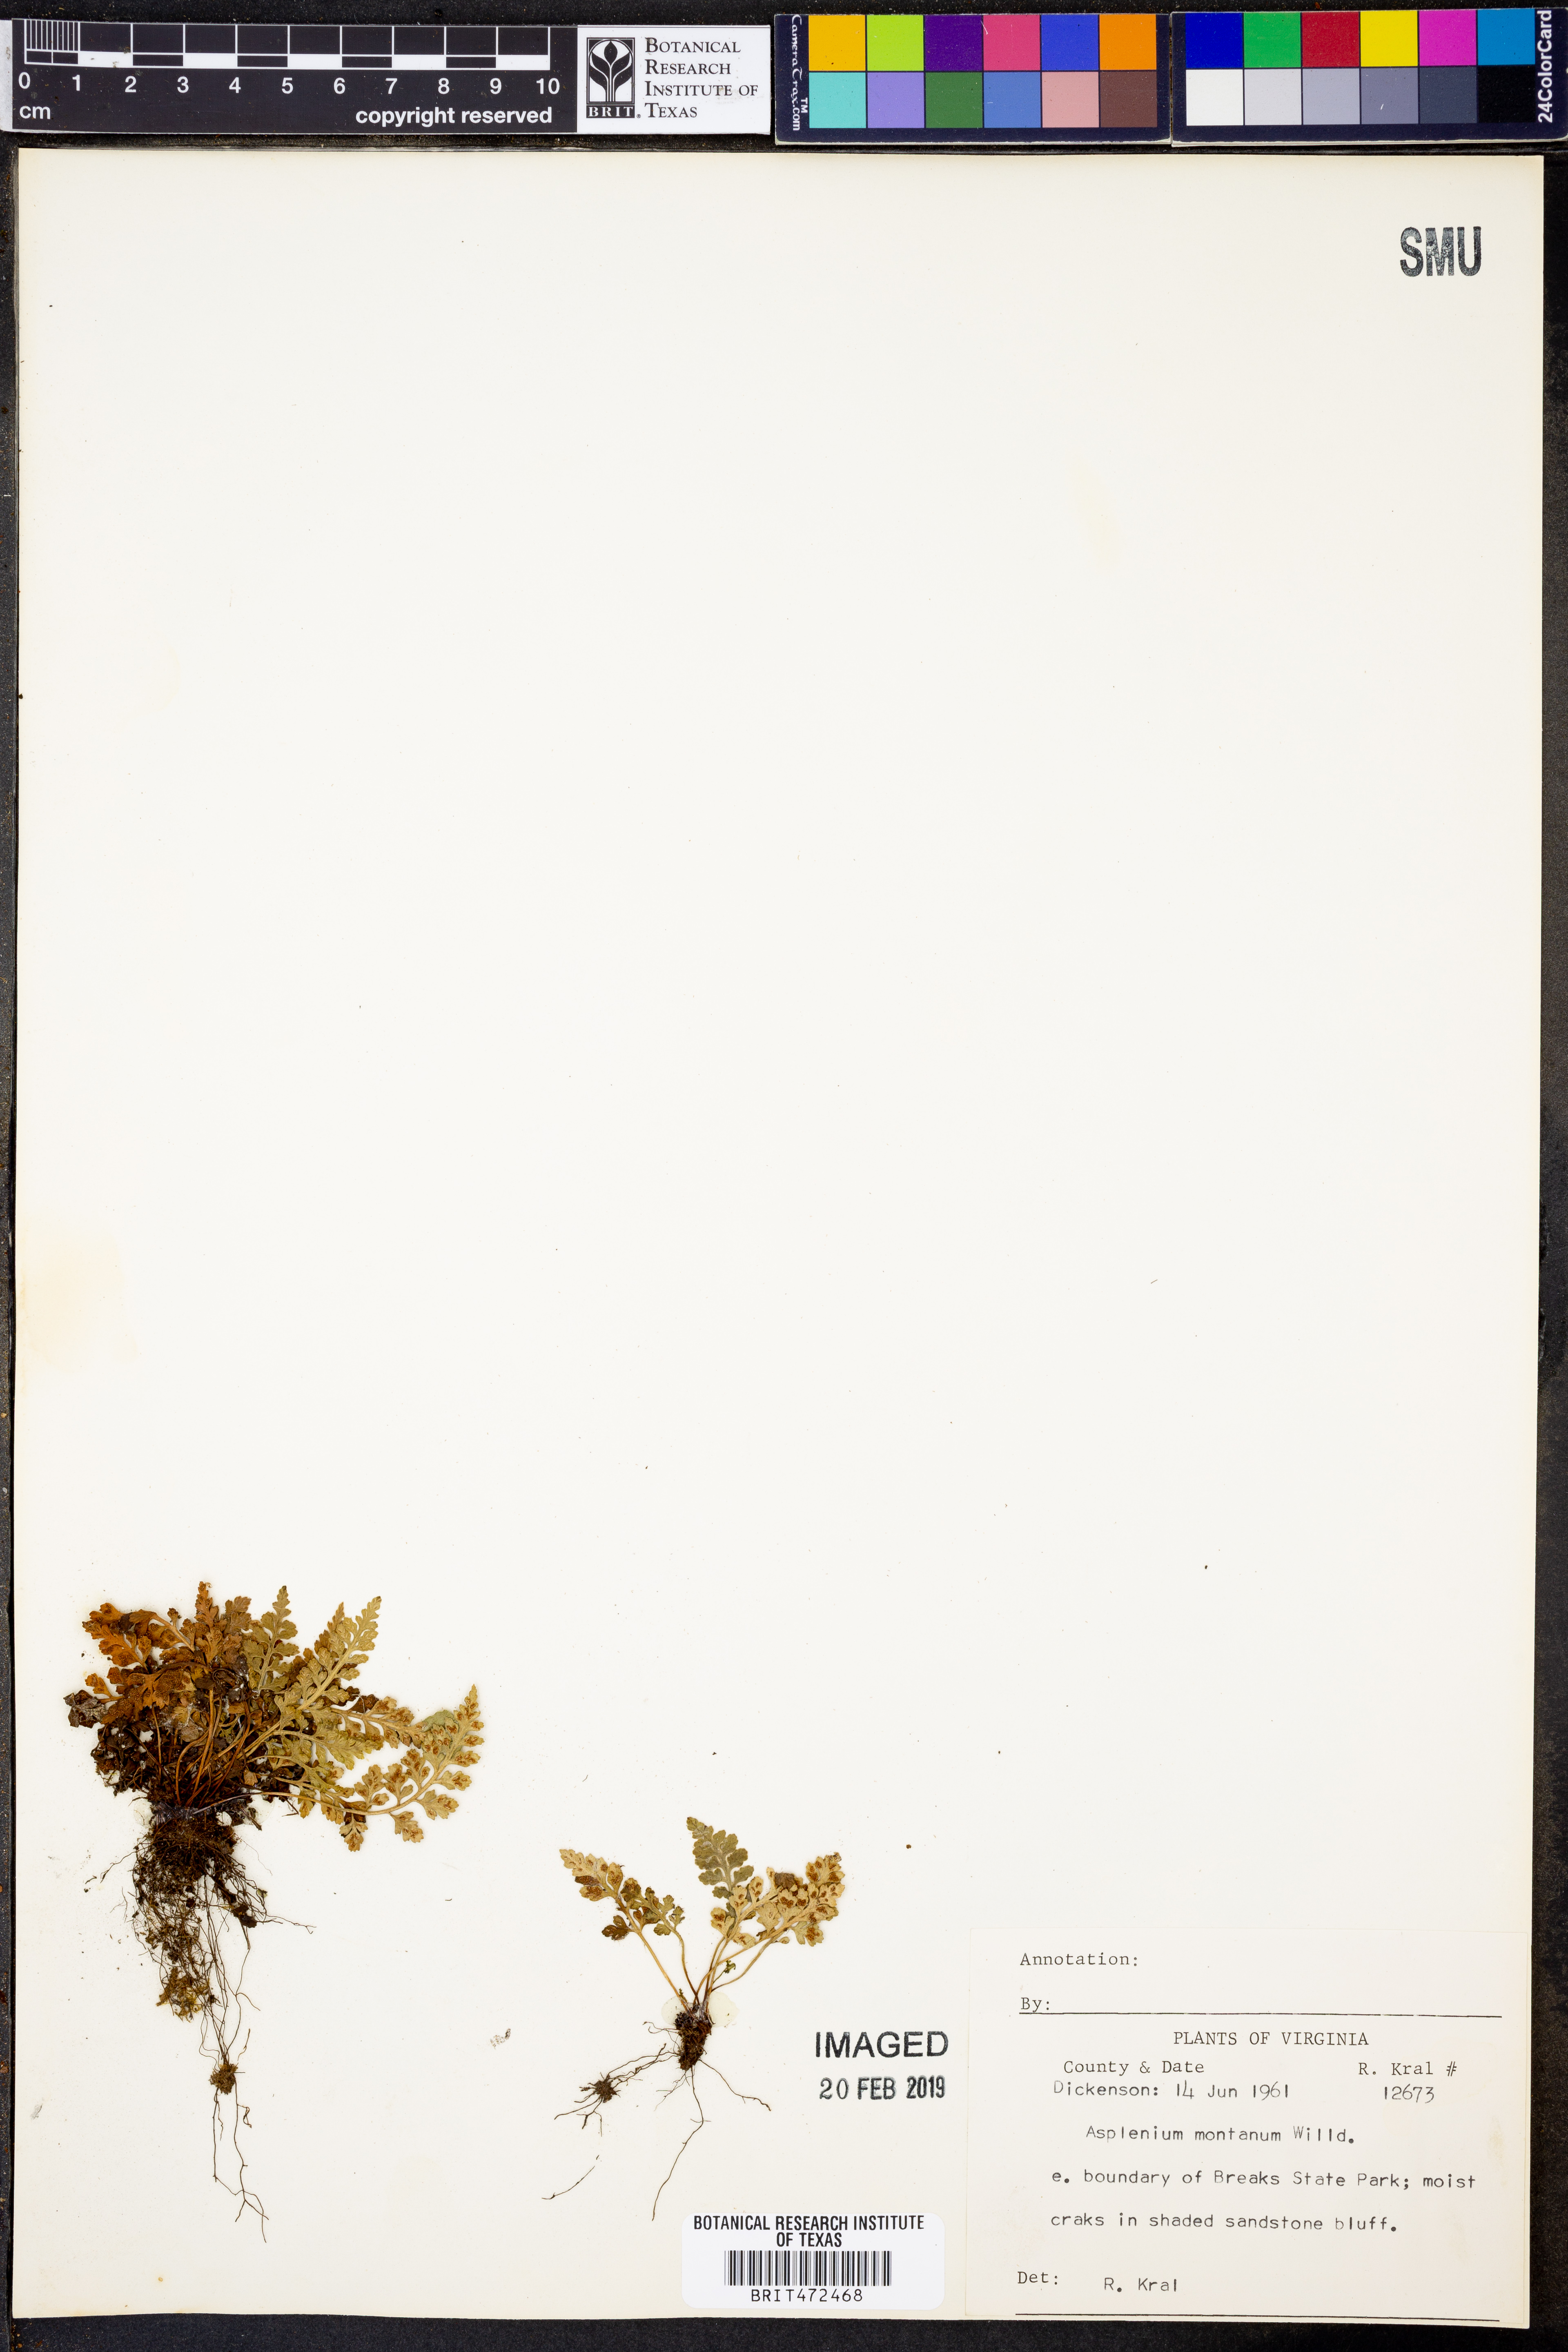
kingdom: Plantae
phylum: Tracheophyta
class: Polypodiopsida
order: Polypodiales
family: Aspleniaceae
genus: Asplenium
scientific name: Asplenium montanum
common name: Mountain spleenwort
